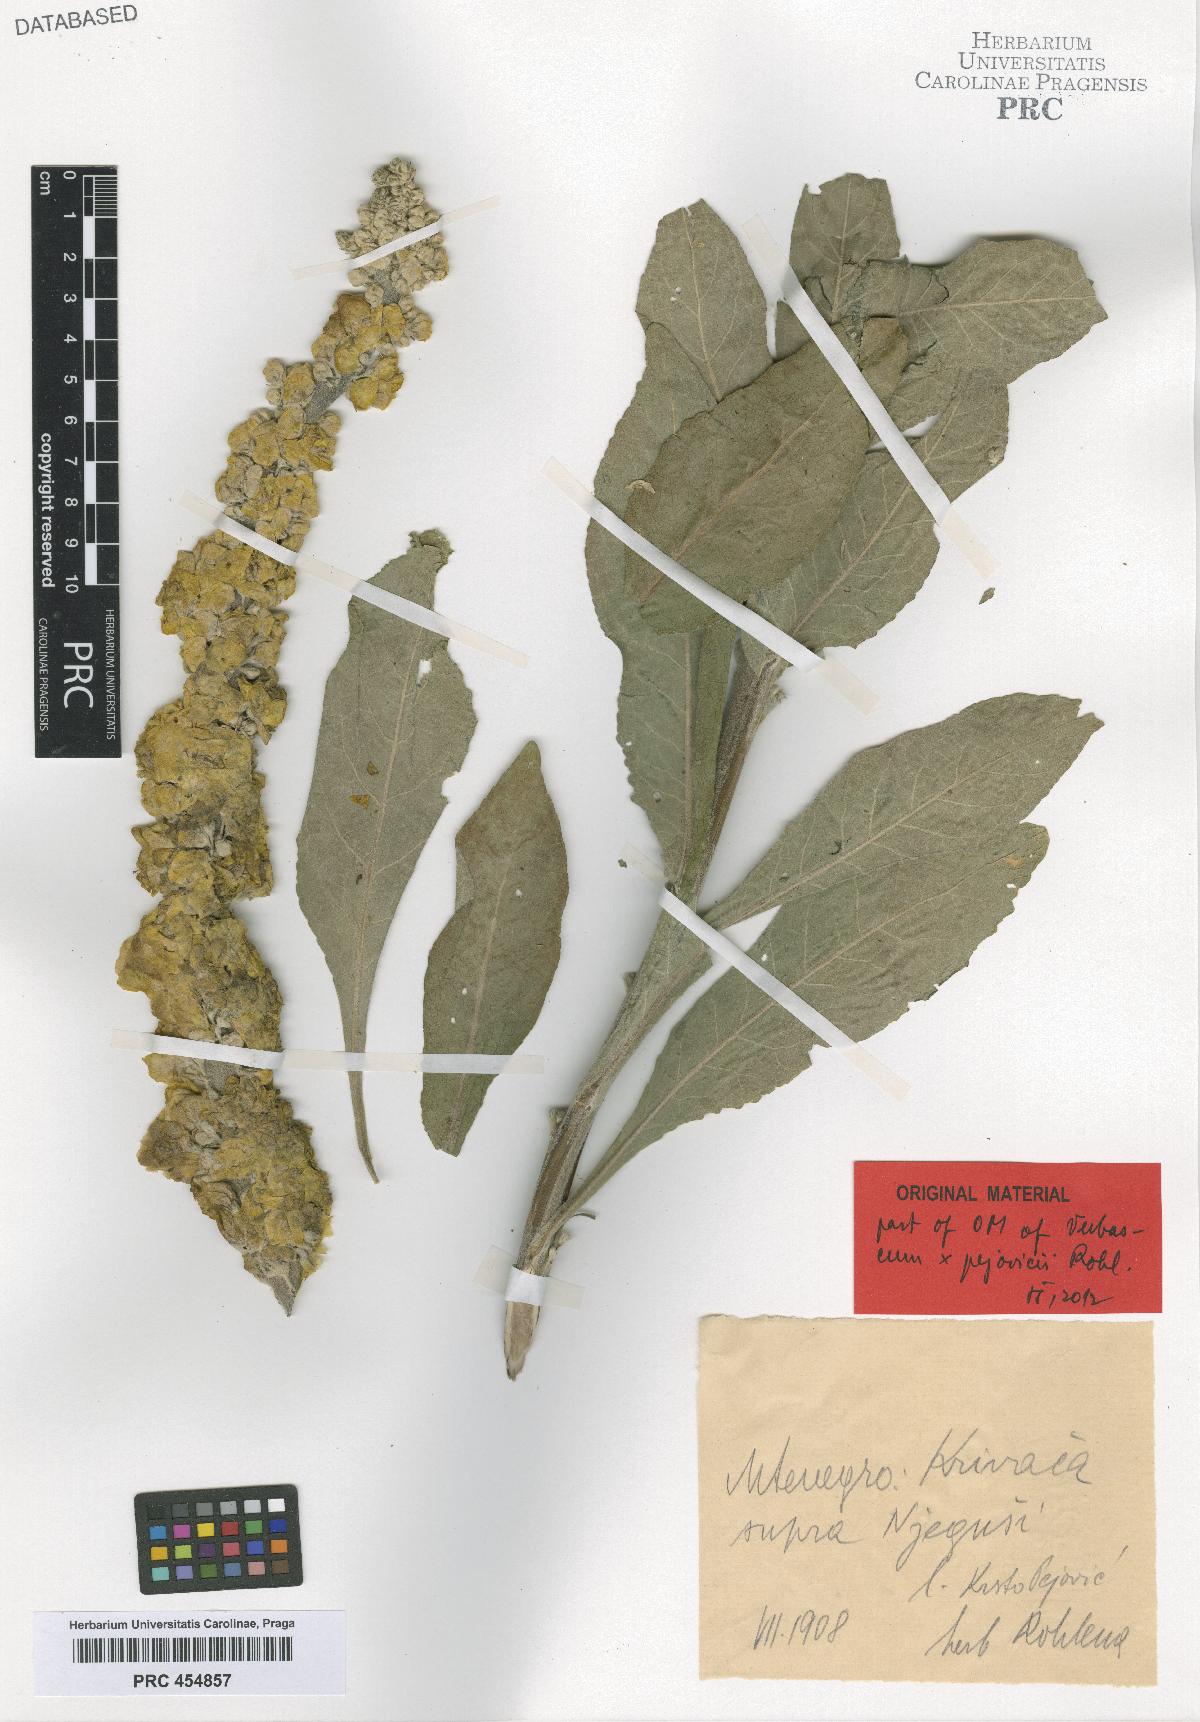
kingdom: Plantae
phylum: Tracheophyta
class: Magnoliopsida
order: Lamiales
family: Scrophulariaceae
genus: Verbascum
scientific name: Verbascum congestum
